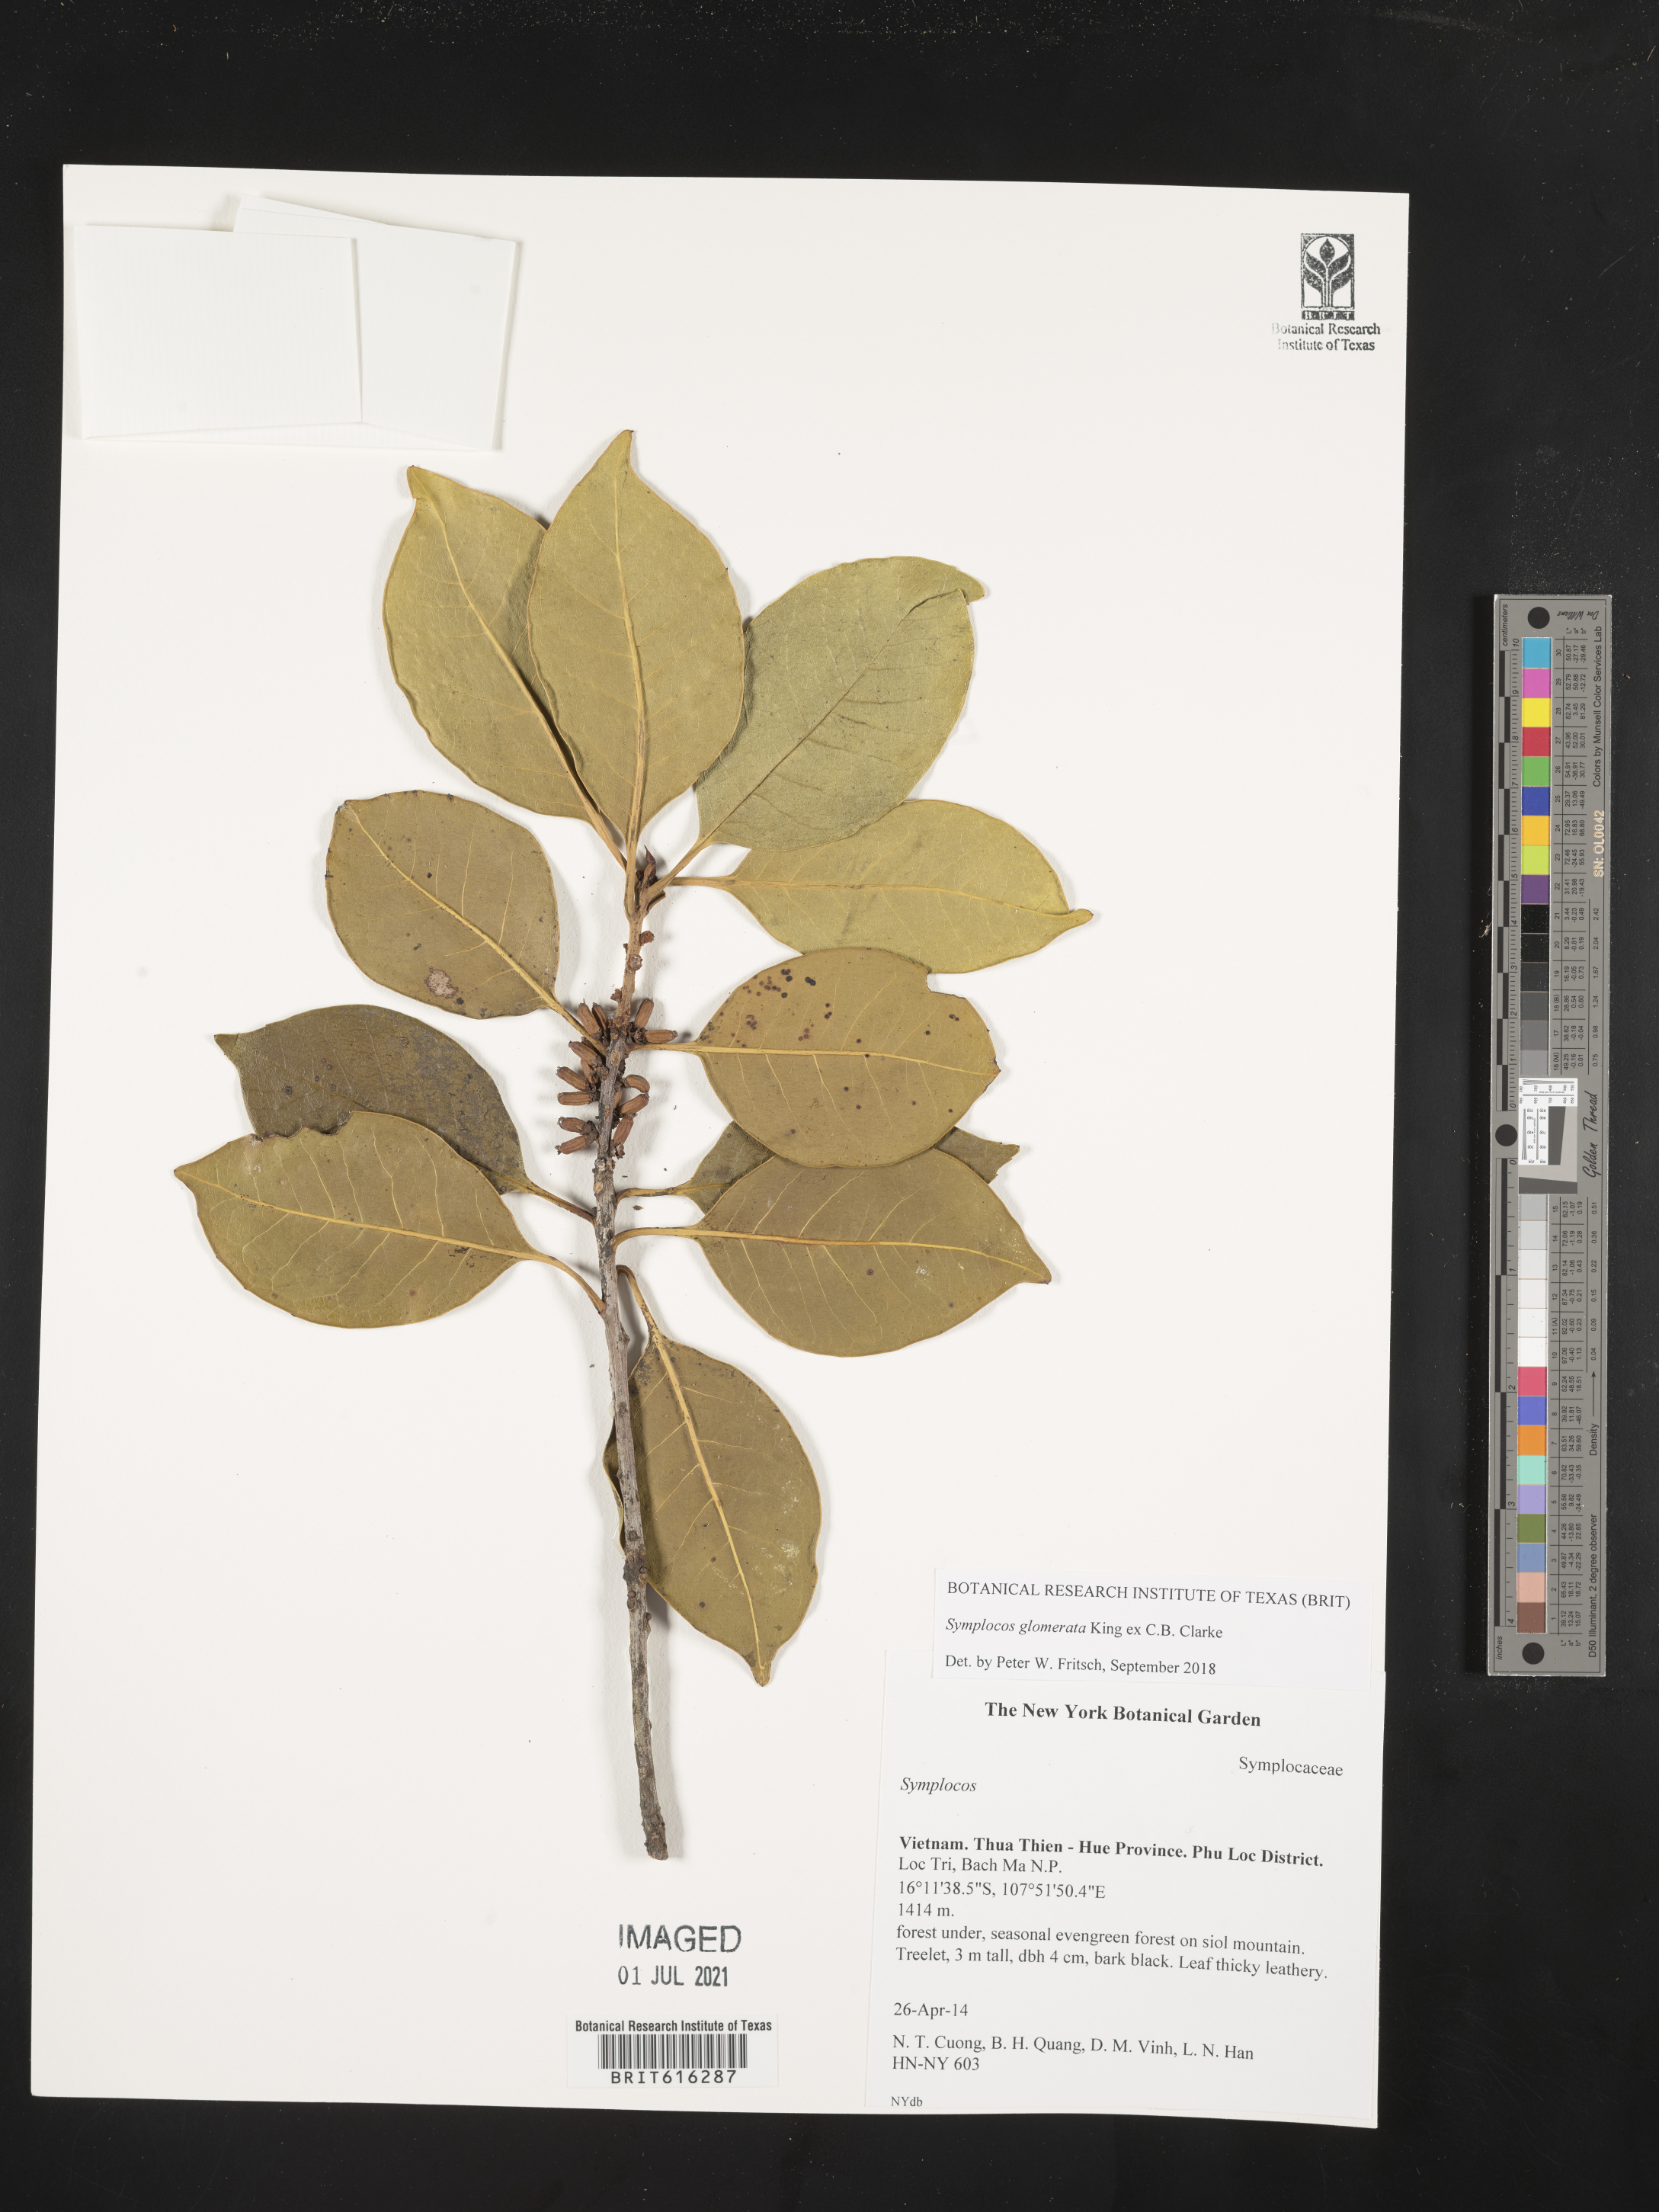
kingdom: Plantae
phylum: Tracheophyta
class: Magnoliopsida
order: Ericales
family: Symplocaceae
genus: Symplocos
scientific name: Symplocos glomerata
